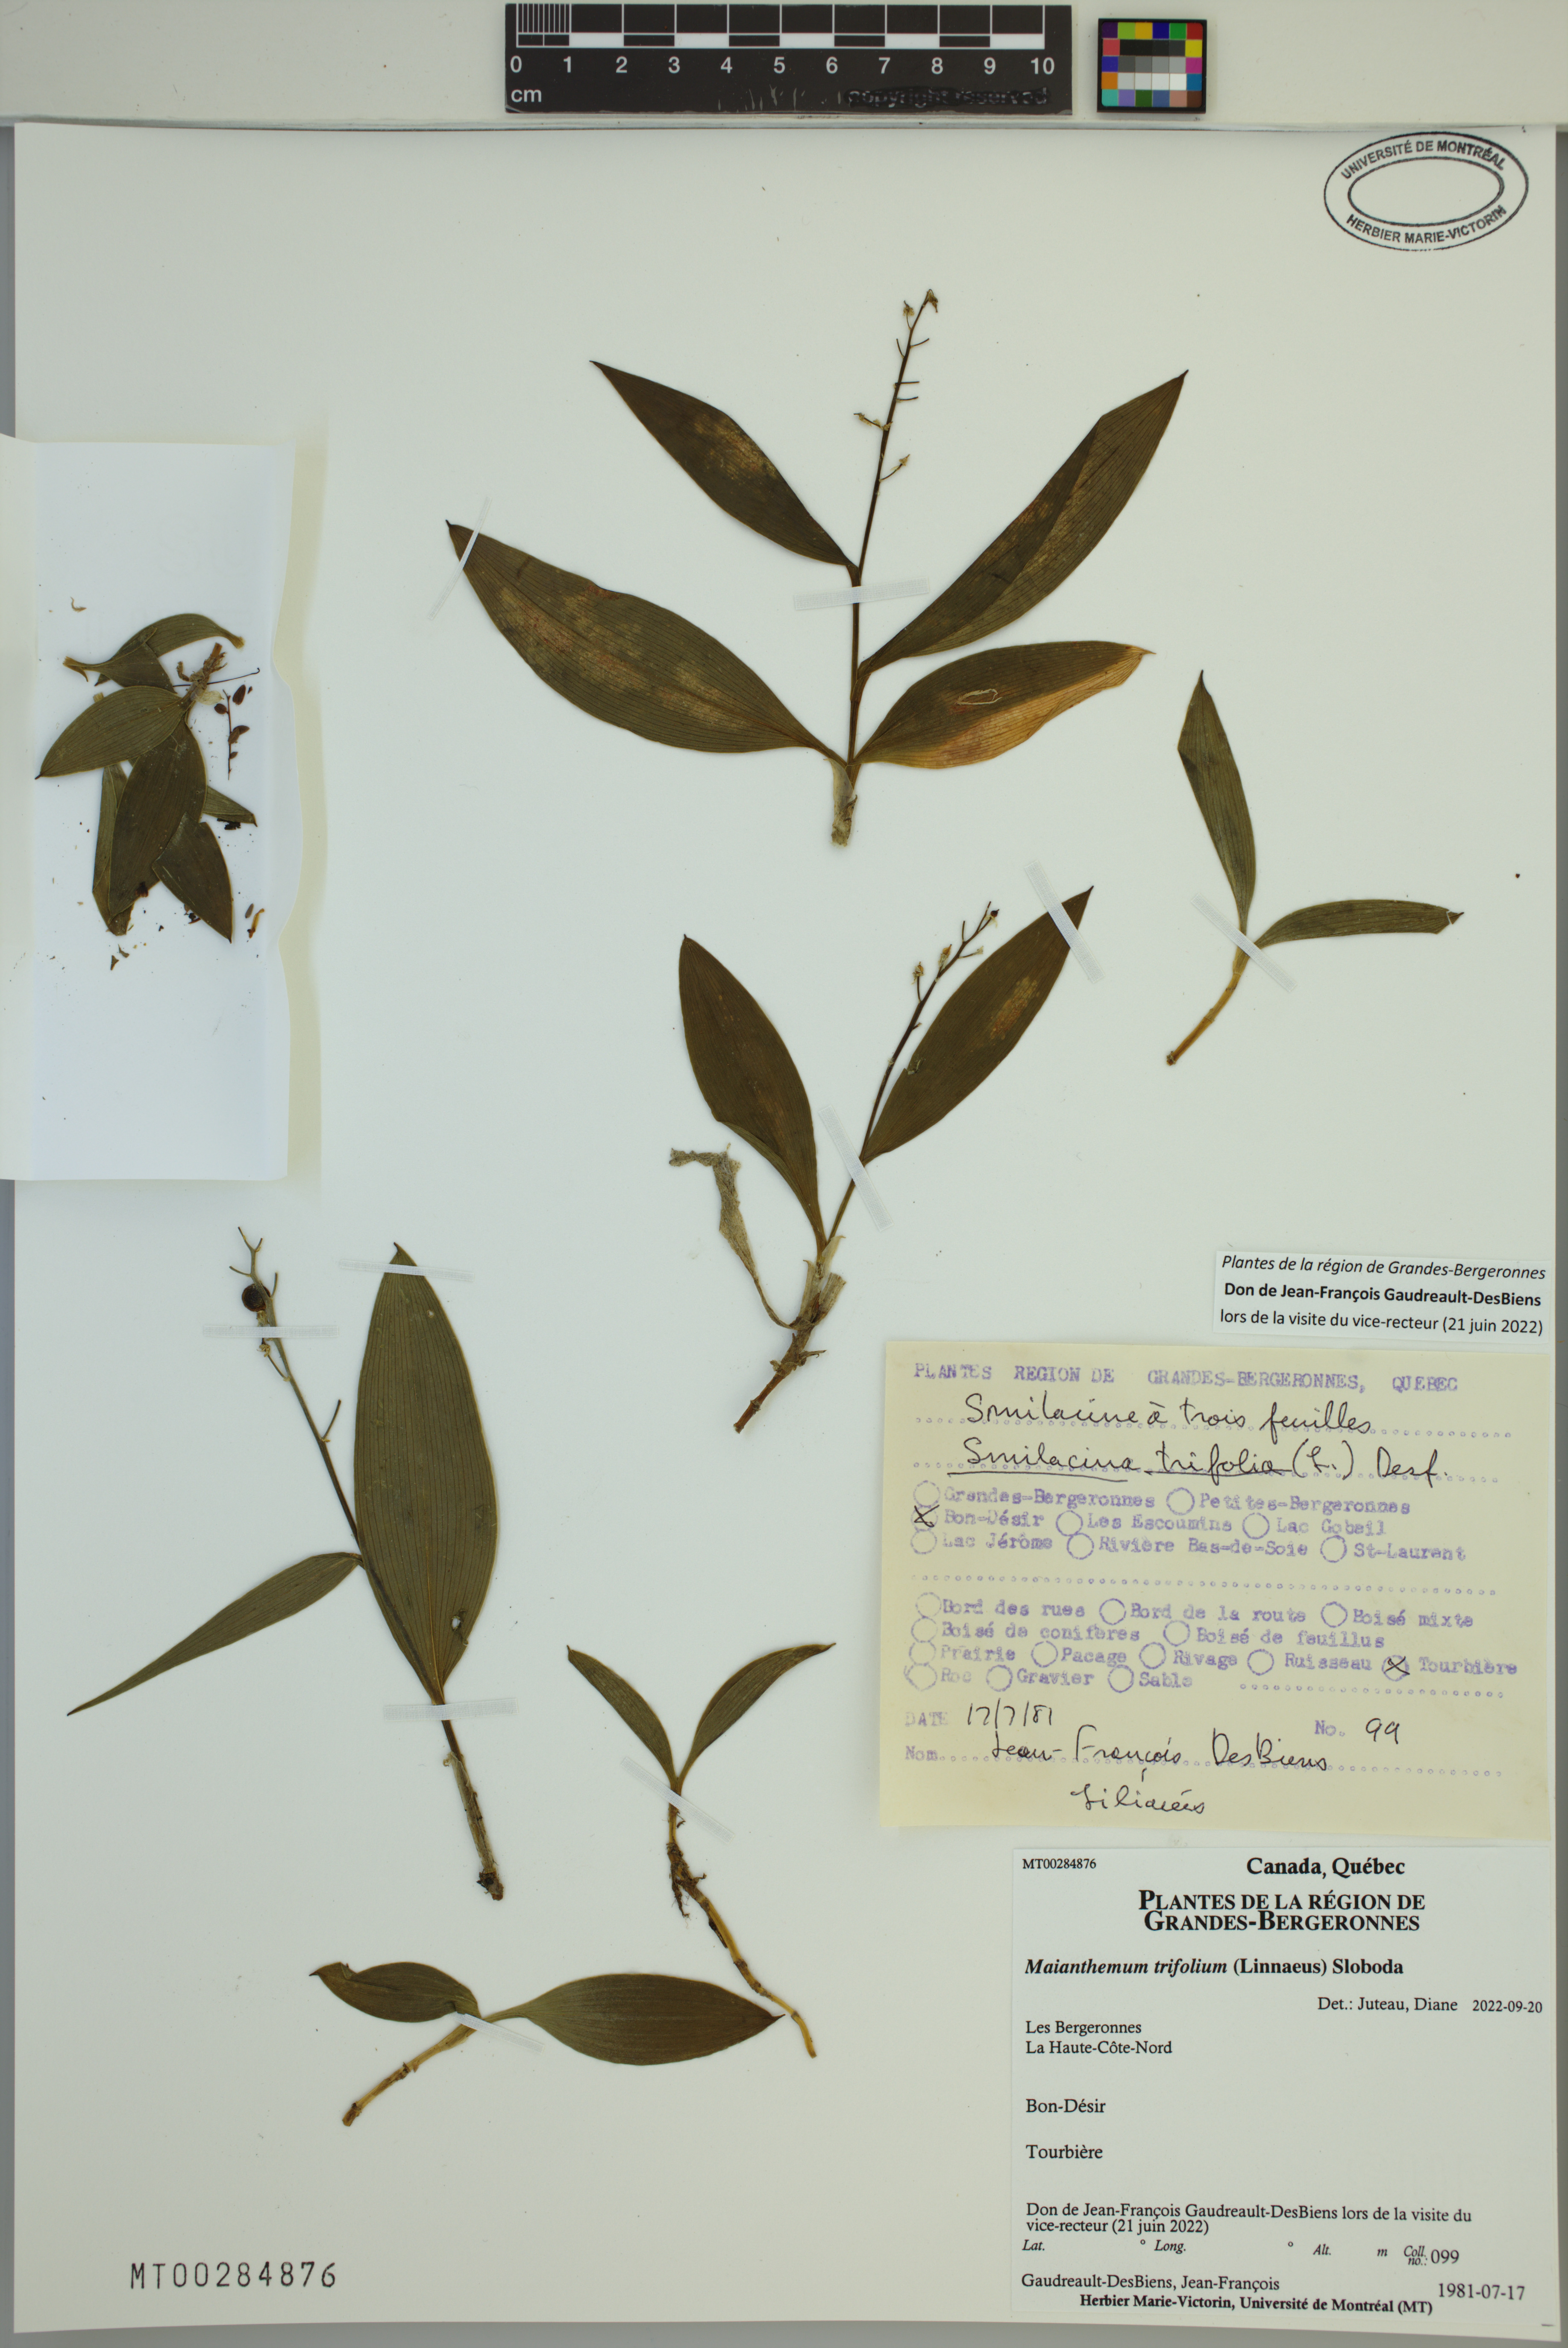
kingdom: Plantae
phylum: Tracheophyta
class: Liliopsida
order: Asparagales
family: Asparagaceae
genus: Maianthemum
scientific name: Maianthemum trifolium
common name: Swamp false solomon's seal
